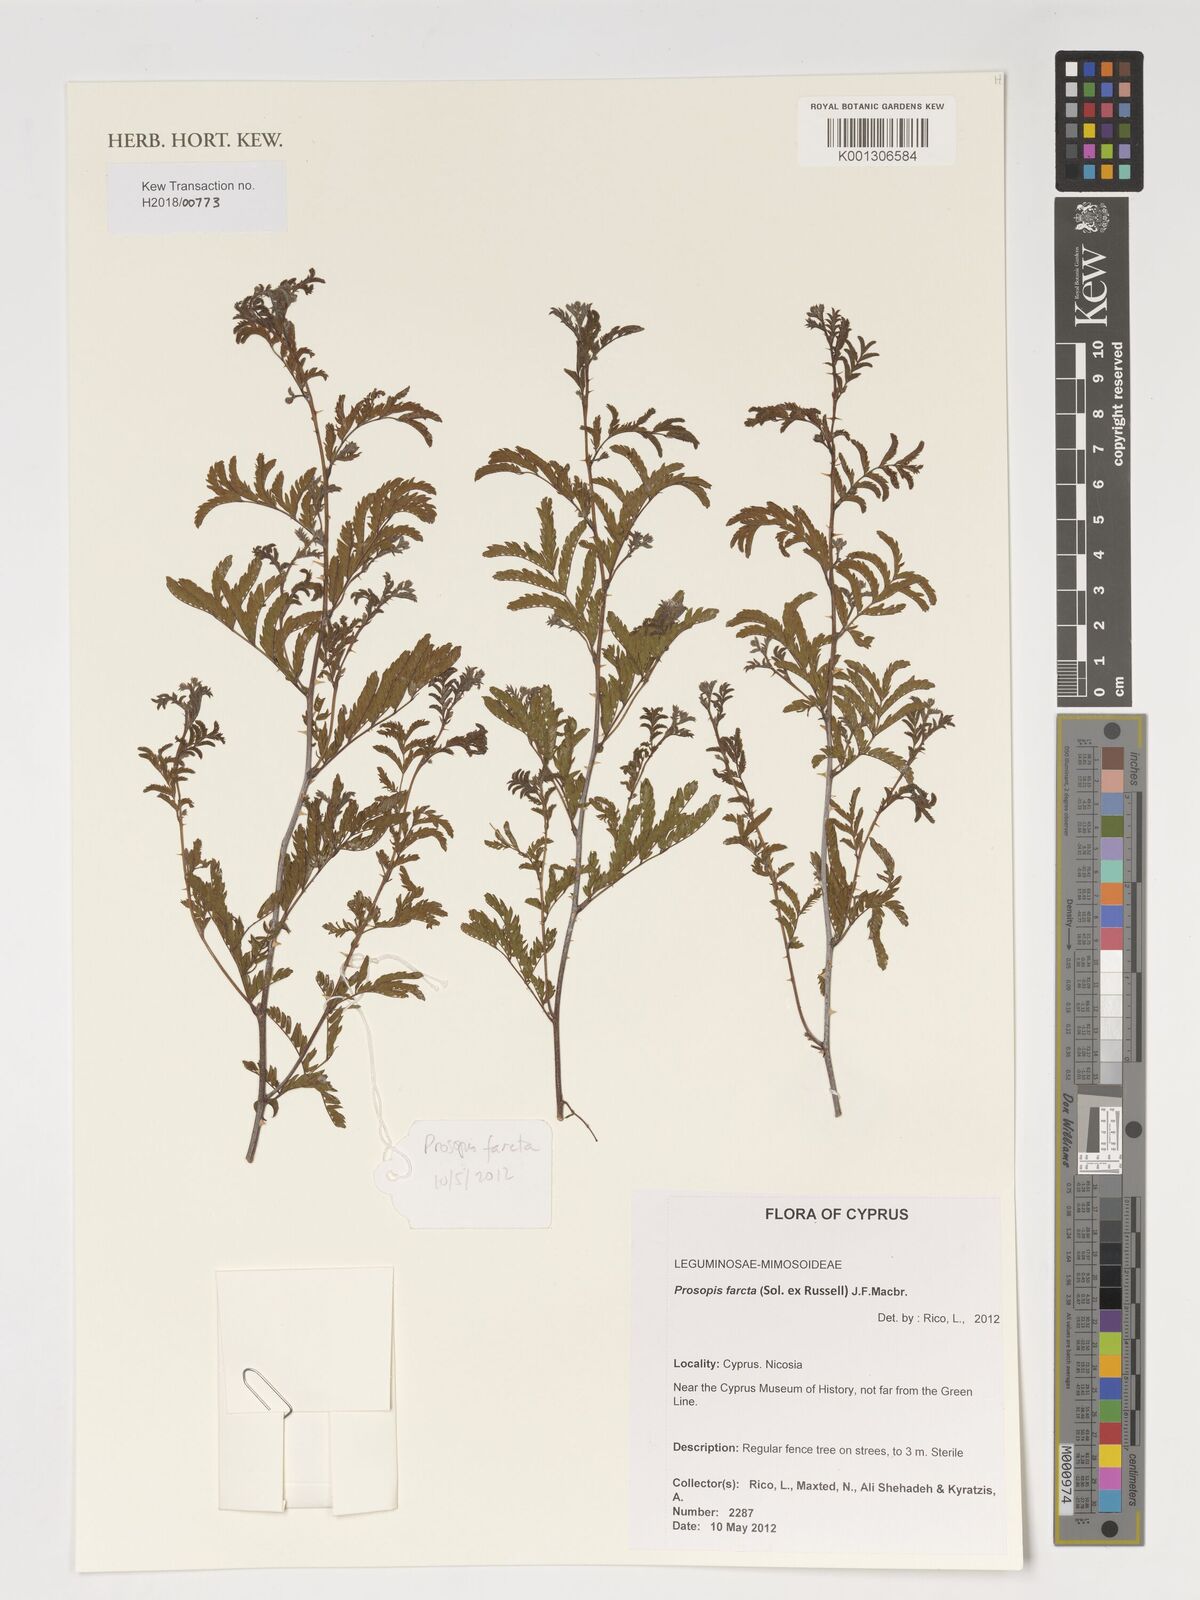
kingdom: Plantae
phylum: Tracheophyta
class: Magnoliopsida
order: Fabales
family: Fabaceae
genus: Prosopis
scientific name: Prosopis farcta
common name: Syrian mesquite
